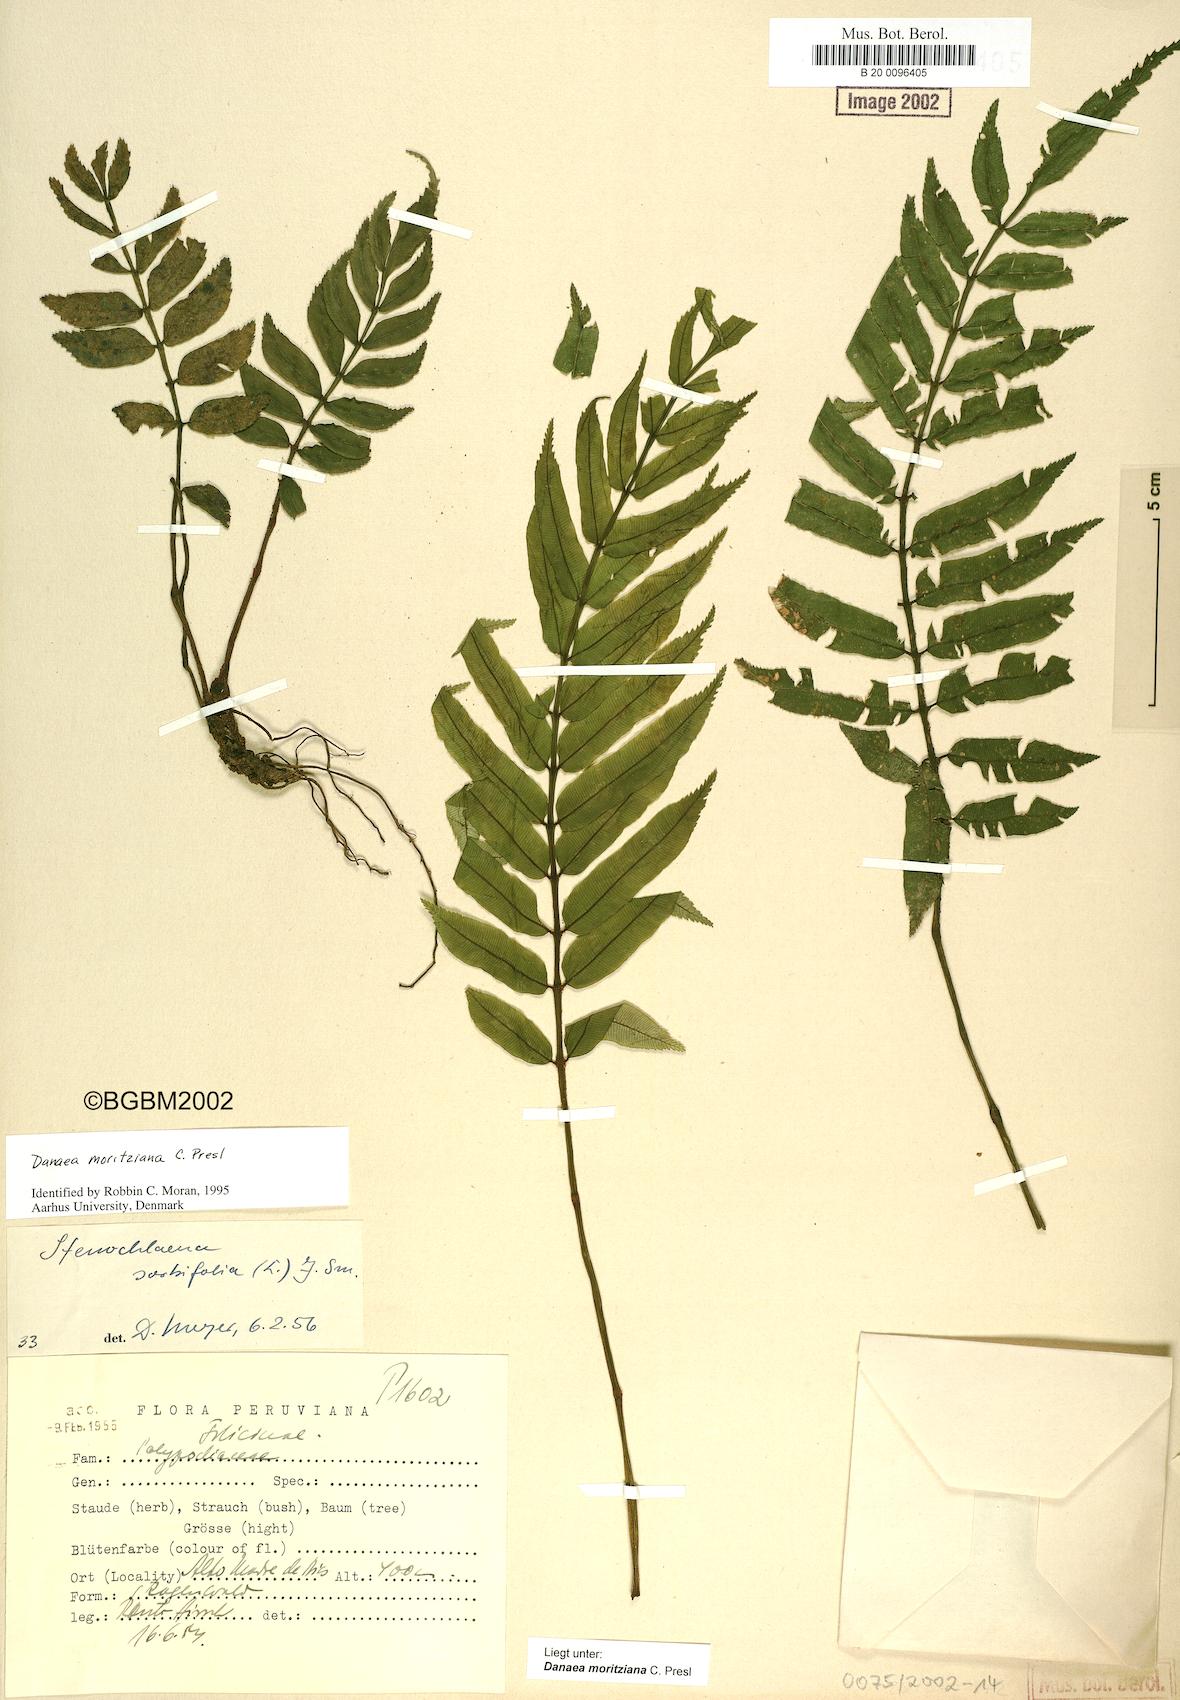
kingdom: Plantae
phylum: Tracheophyta
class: Polypodiopsida
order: Marattiales
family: Marattiaceae
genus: Danaea
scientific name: Danaea moritziana
